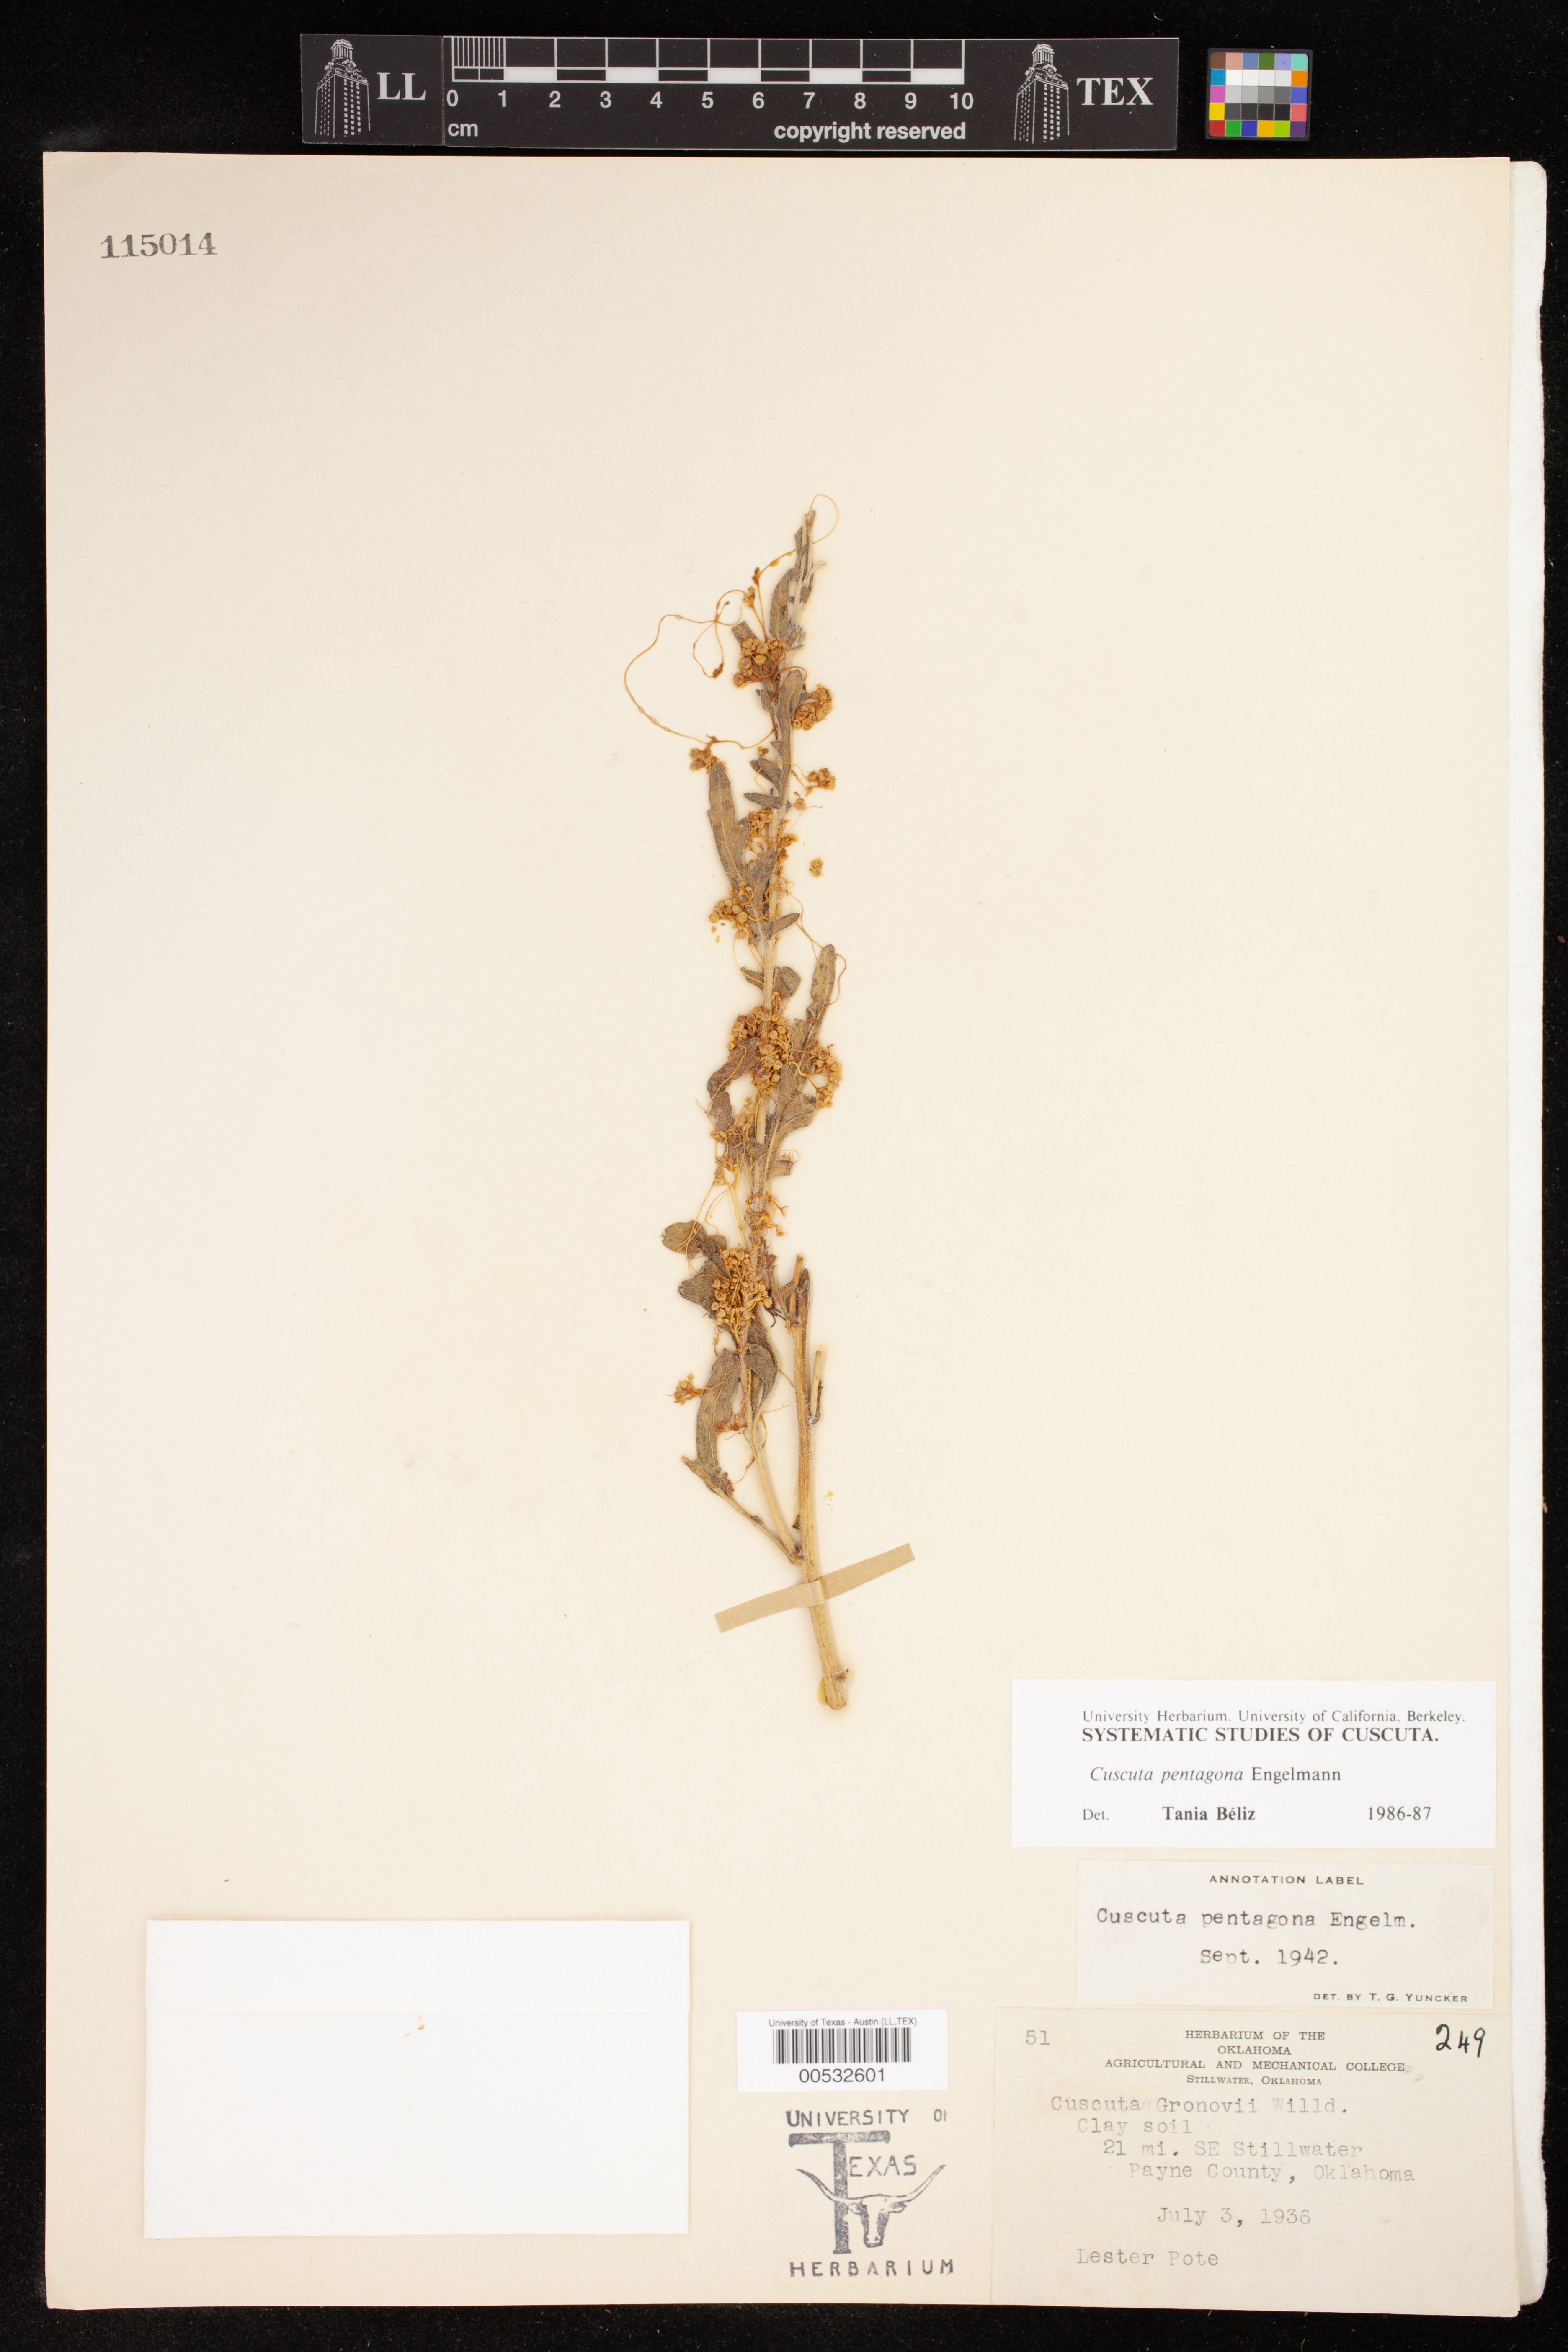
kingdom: Plantae
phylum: Tracheophyta
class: Magnoliopsida
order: Solanales
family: Convolvulaceae
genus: Cuscuta
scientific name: Cuscuta pentagona
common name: Fiveangled dodder
